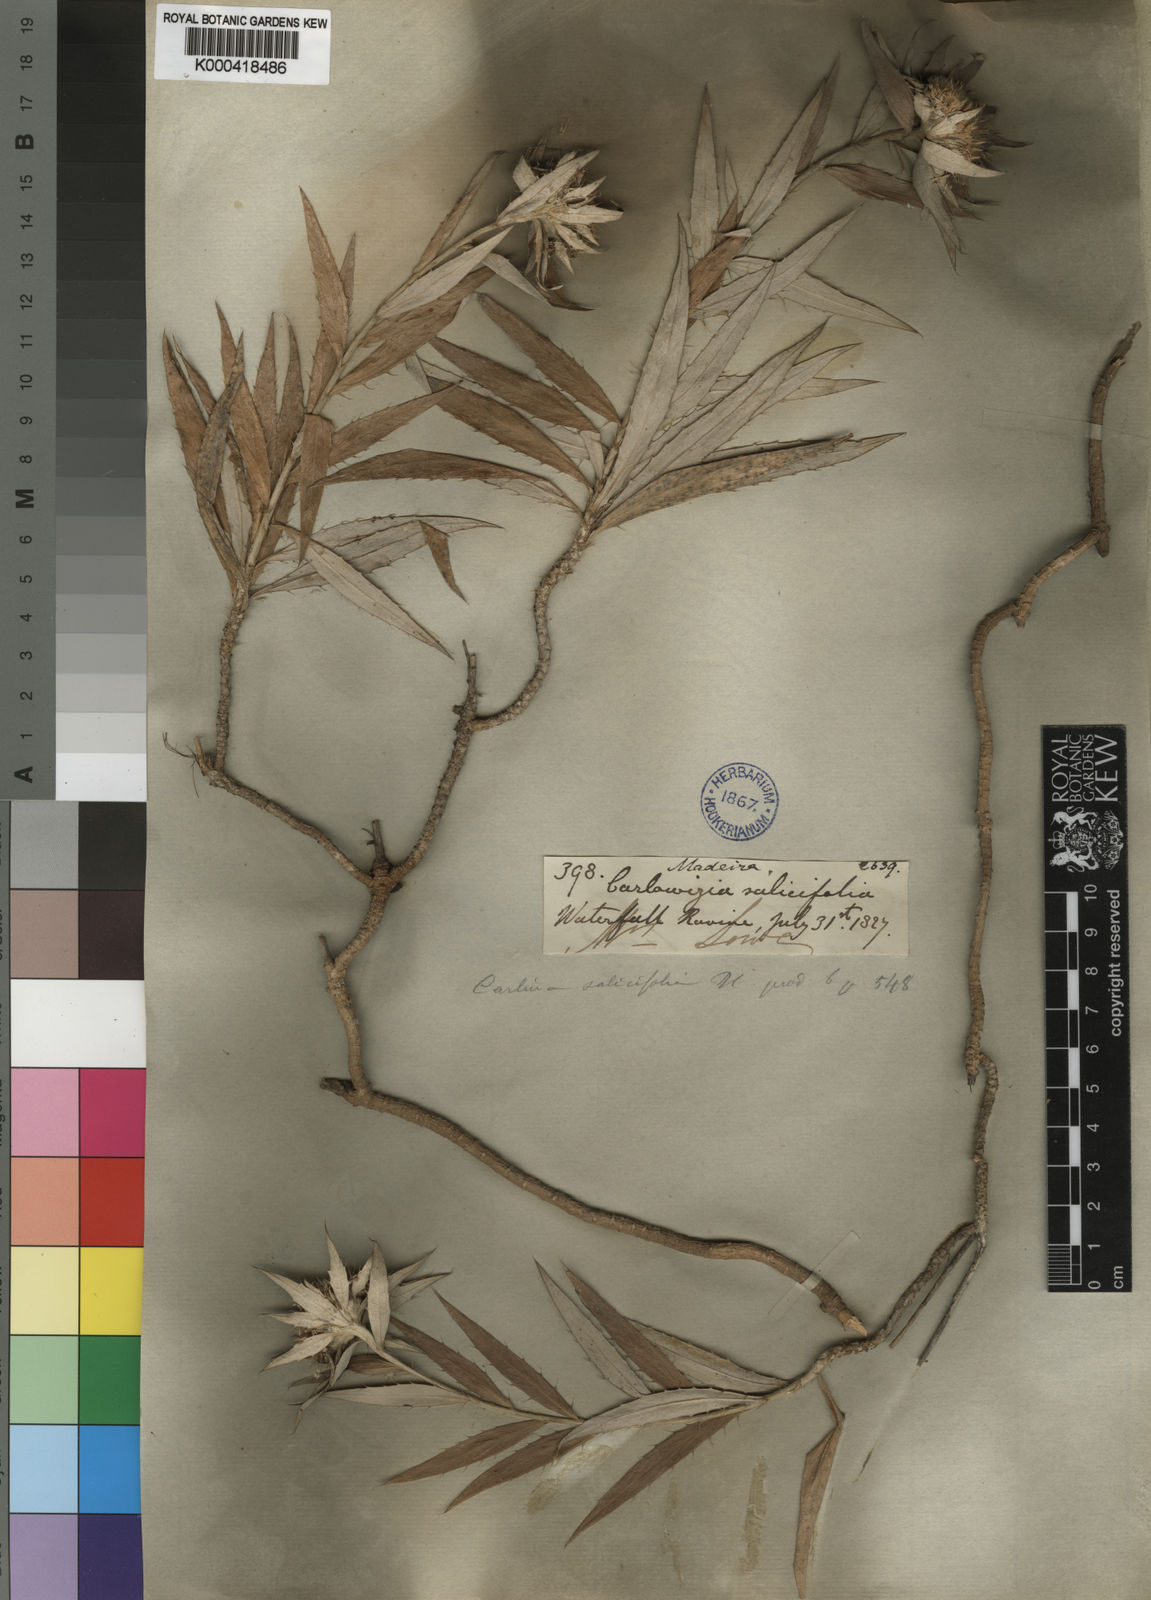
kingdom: Plantae
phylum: Tracheophyta
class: Magnoliopsida
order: Asterales
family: Asteraceae
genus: Carlina
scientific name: Carlina salicifolia
